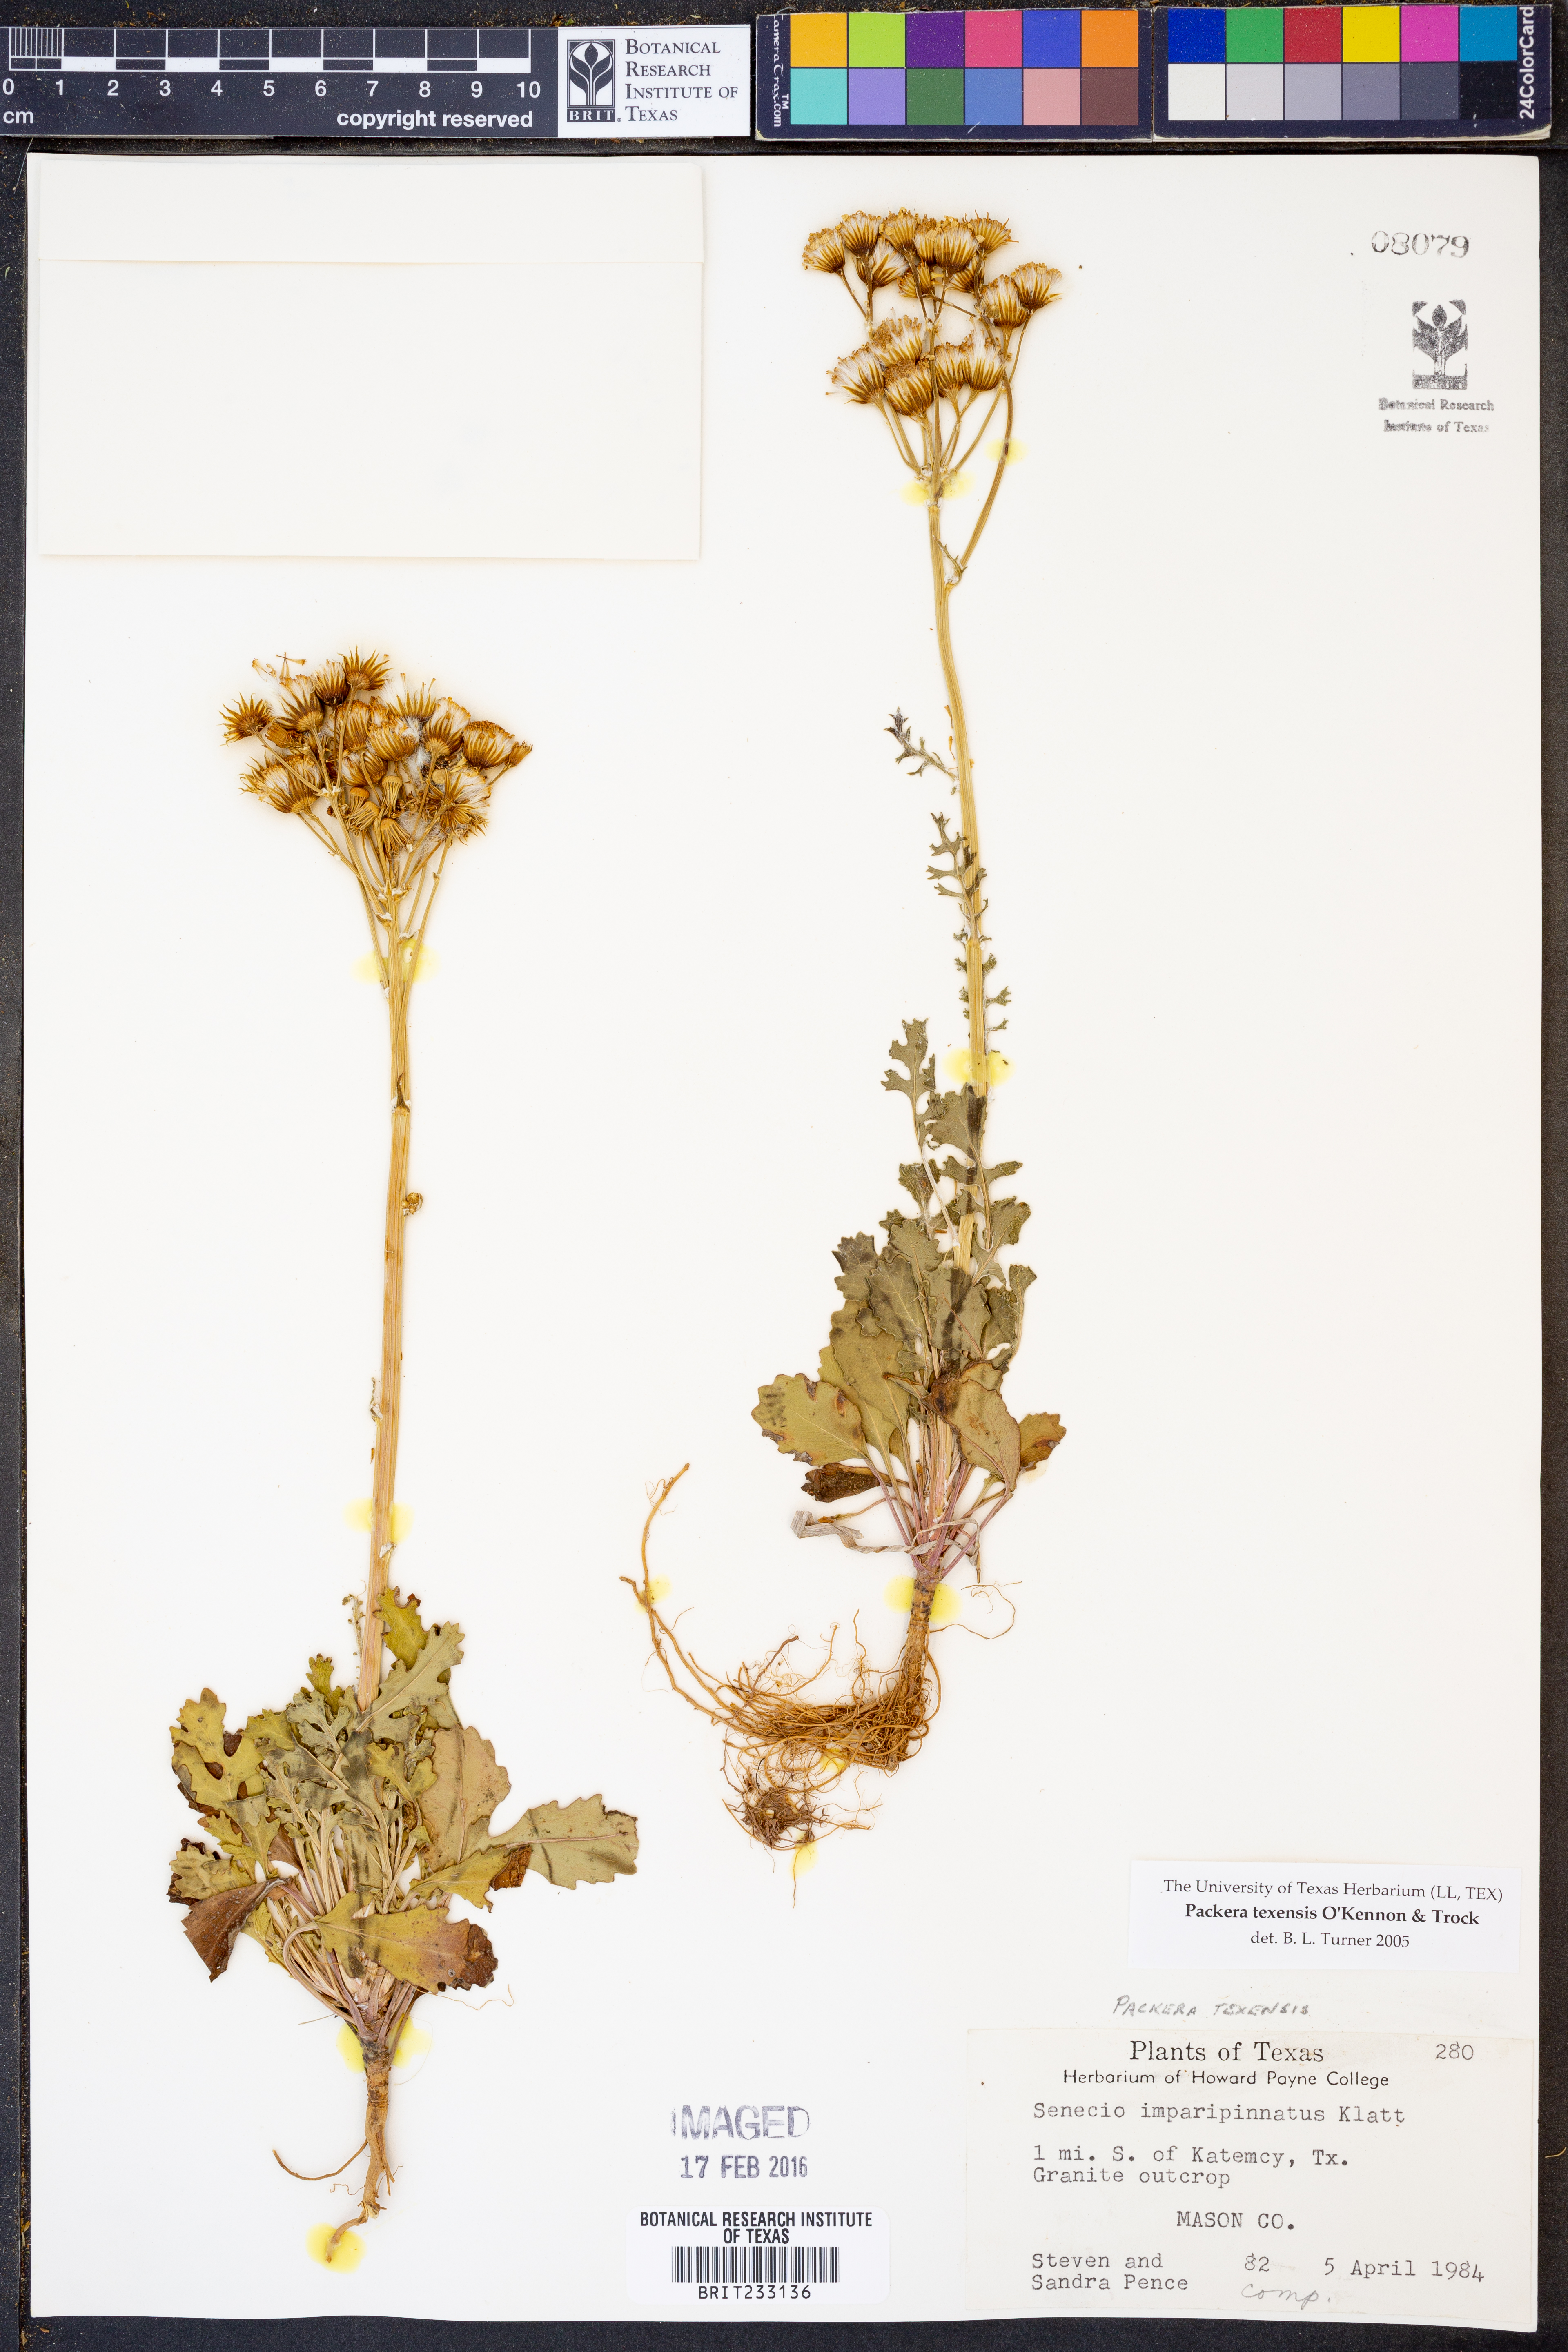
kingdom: Plantae
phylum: Tracheophyta
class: Magnoliopsida
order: Asterales
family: Asteraceae
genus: Packera
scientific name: Packera texensis
